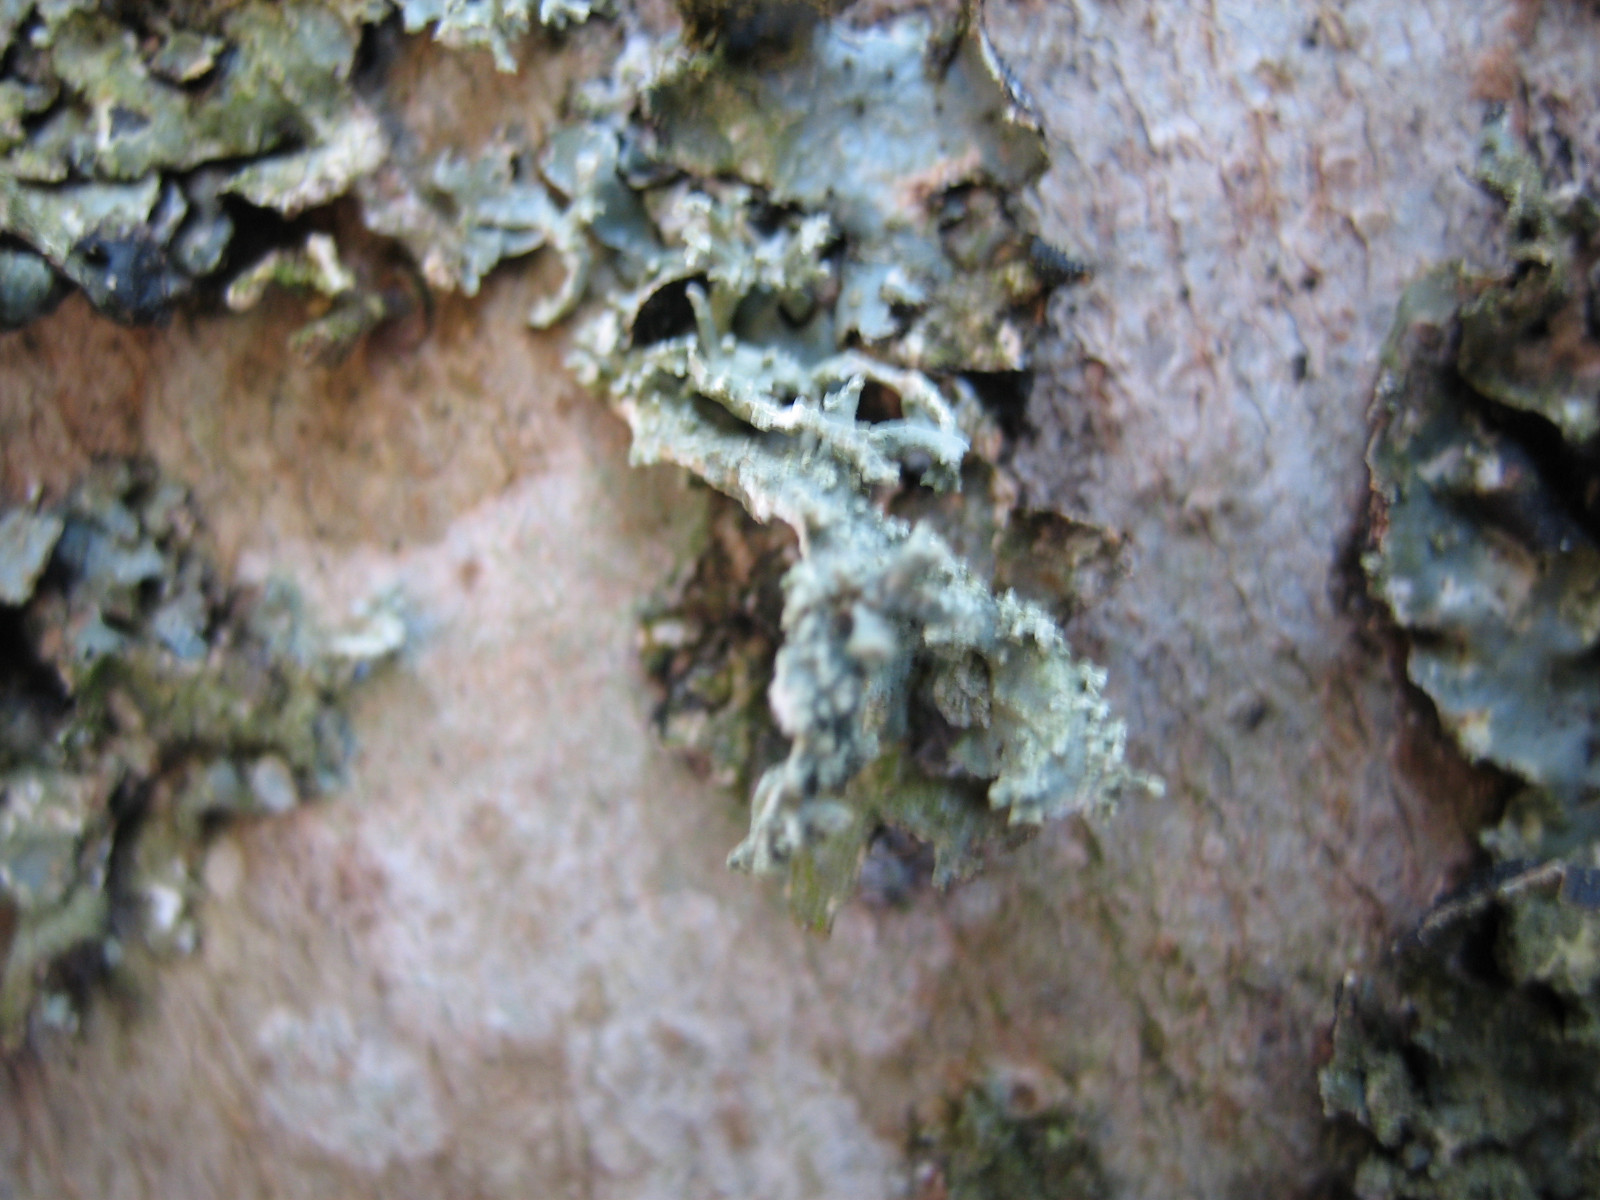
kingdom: Fungi
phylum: Ascomycota
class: Lecanoromycetes
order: Lecanorales
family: Parmeliaceae
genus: Evernia
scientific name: Evernia prunastri
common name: almindelig slåenlav
